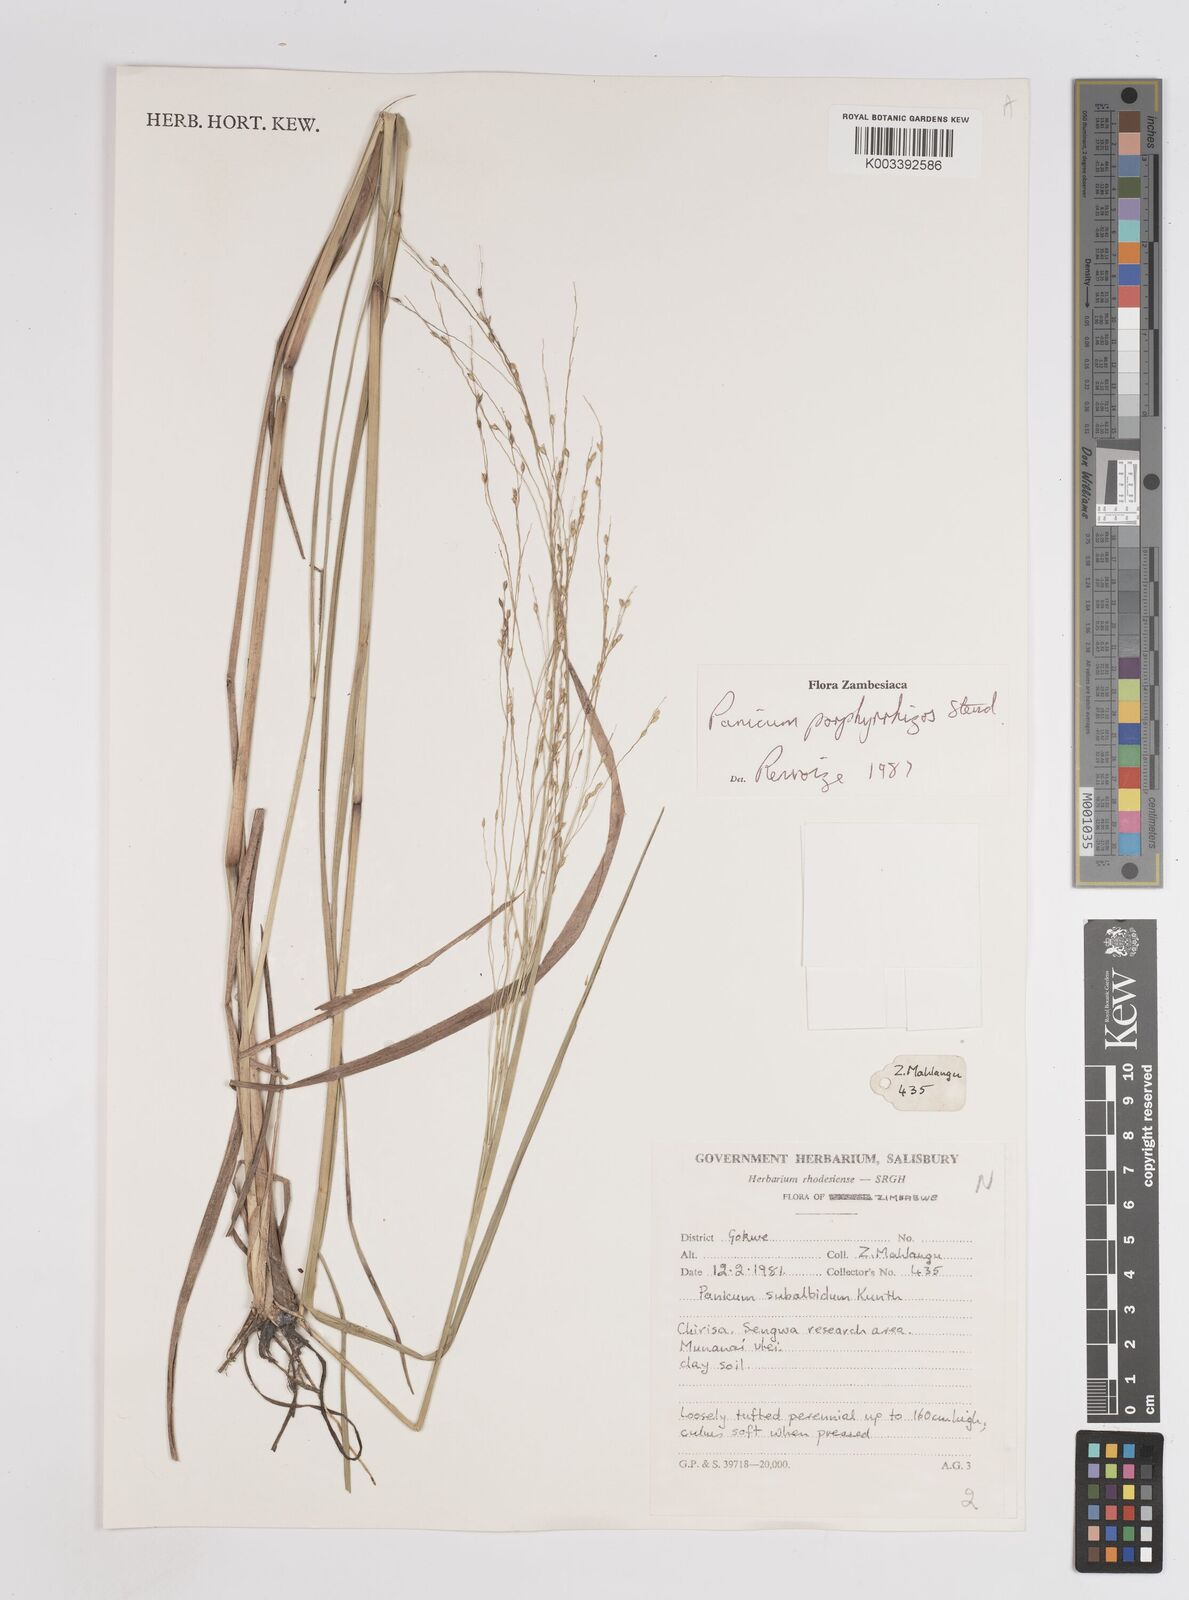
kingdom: Plantae
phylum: Tracheophyta
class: Liliopsida
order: Poales
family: Poaceae
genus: Panicum
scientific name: Panicum porphyrrhizos
